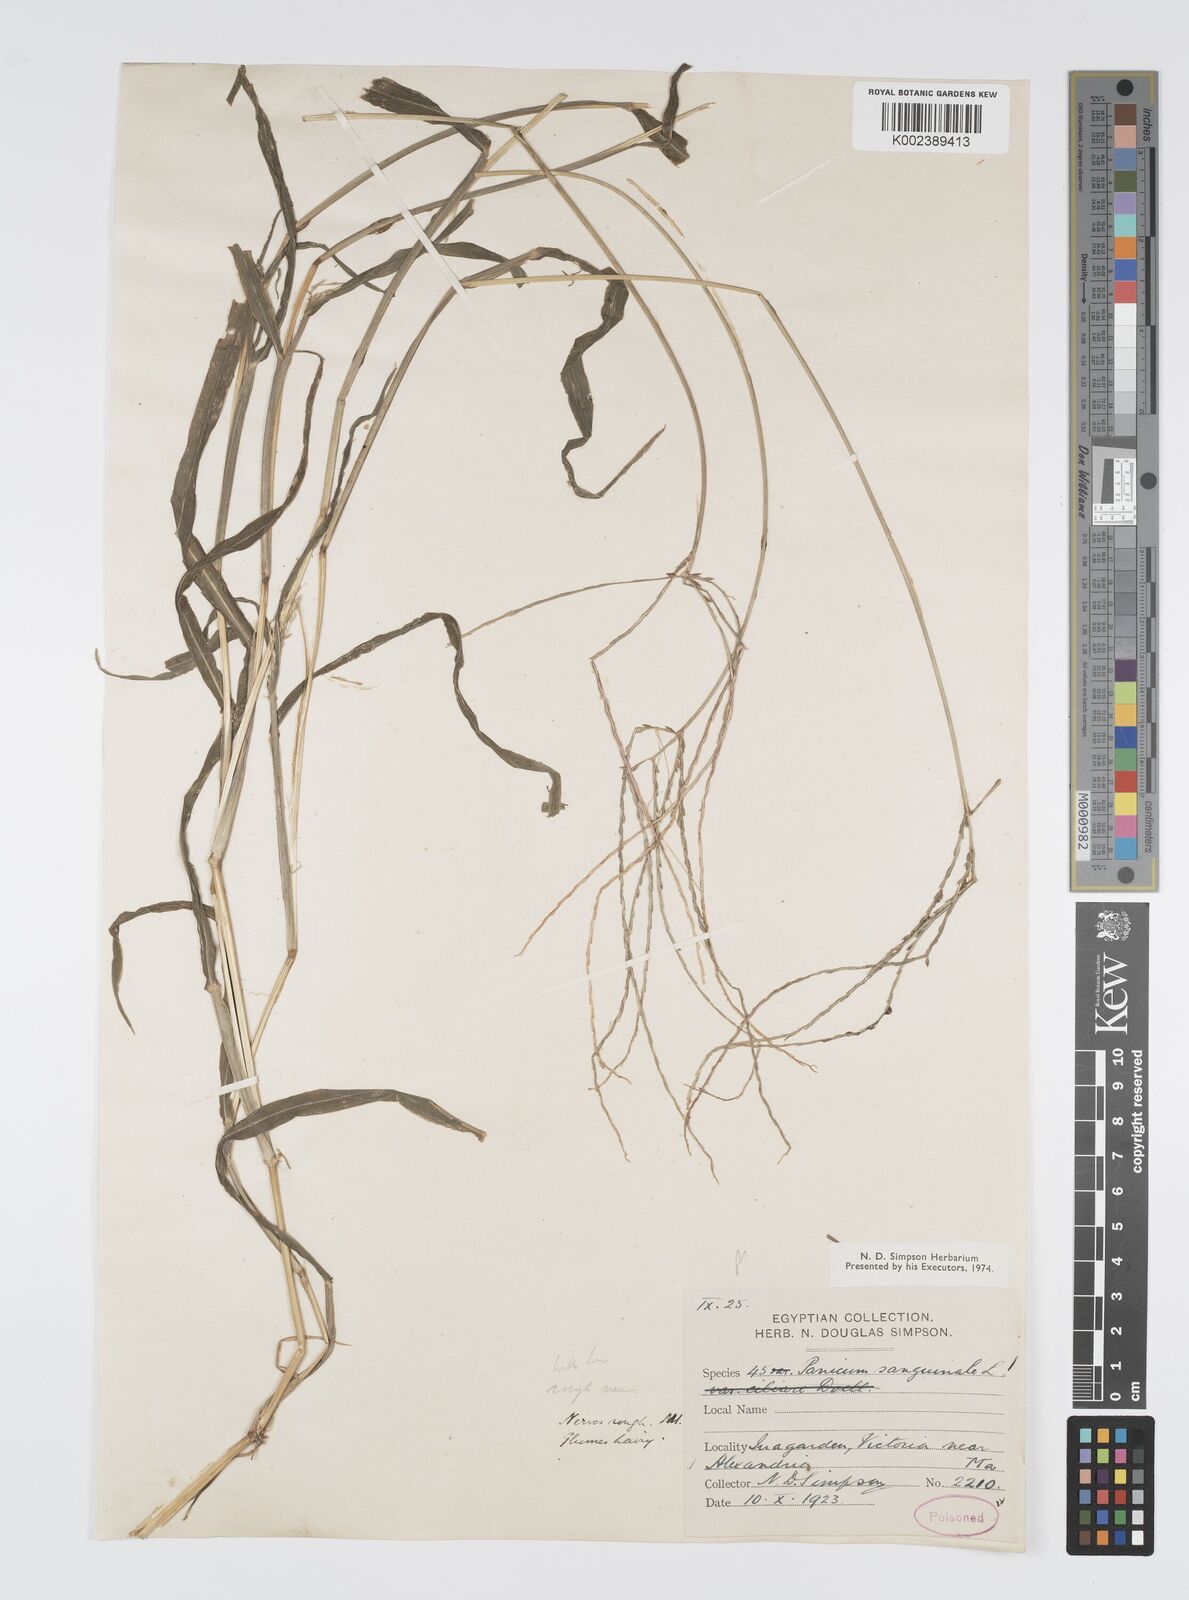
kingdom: Plantae
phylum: Tracheophyta
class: Liliopsida
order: Poales
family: Poaceae
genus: Digitaria
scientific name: Digitaria sanguinalis
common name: Hairy crabgrass
